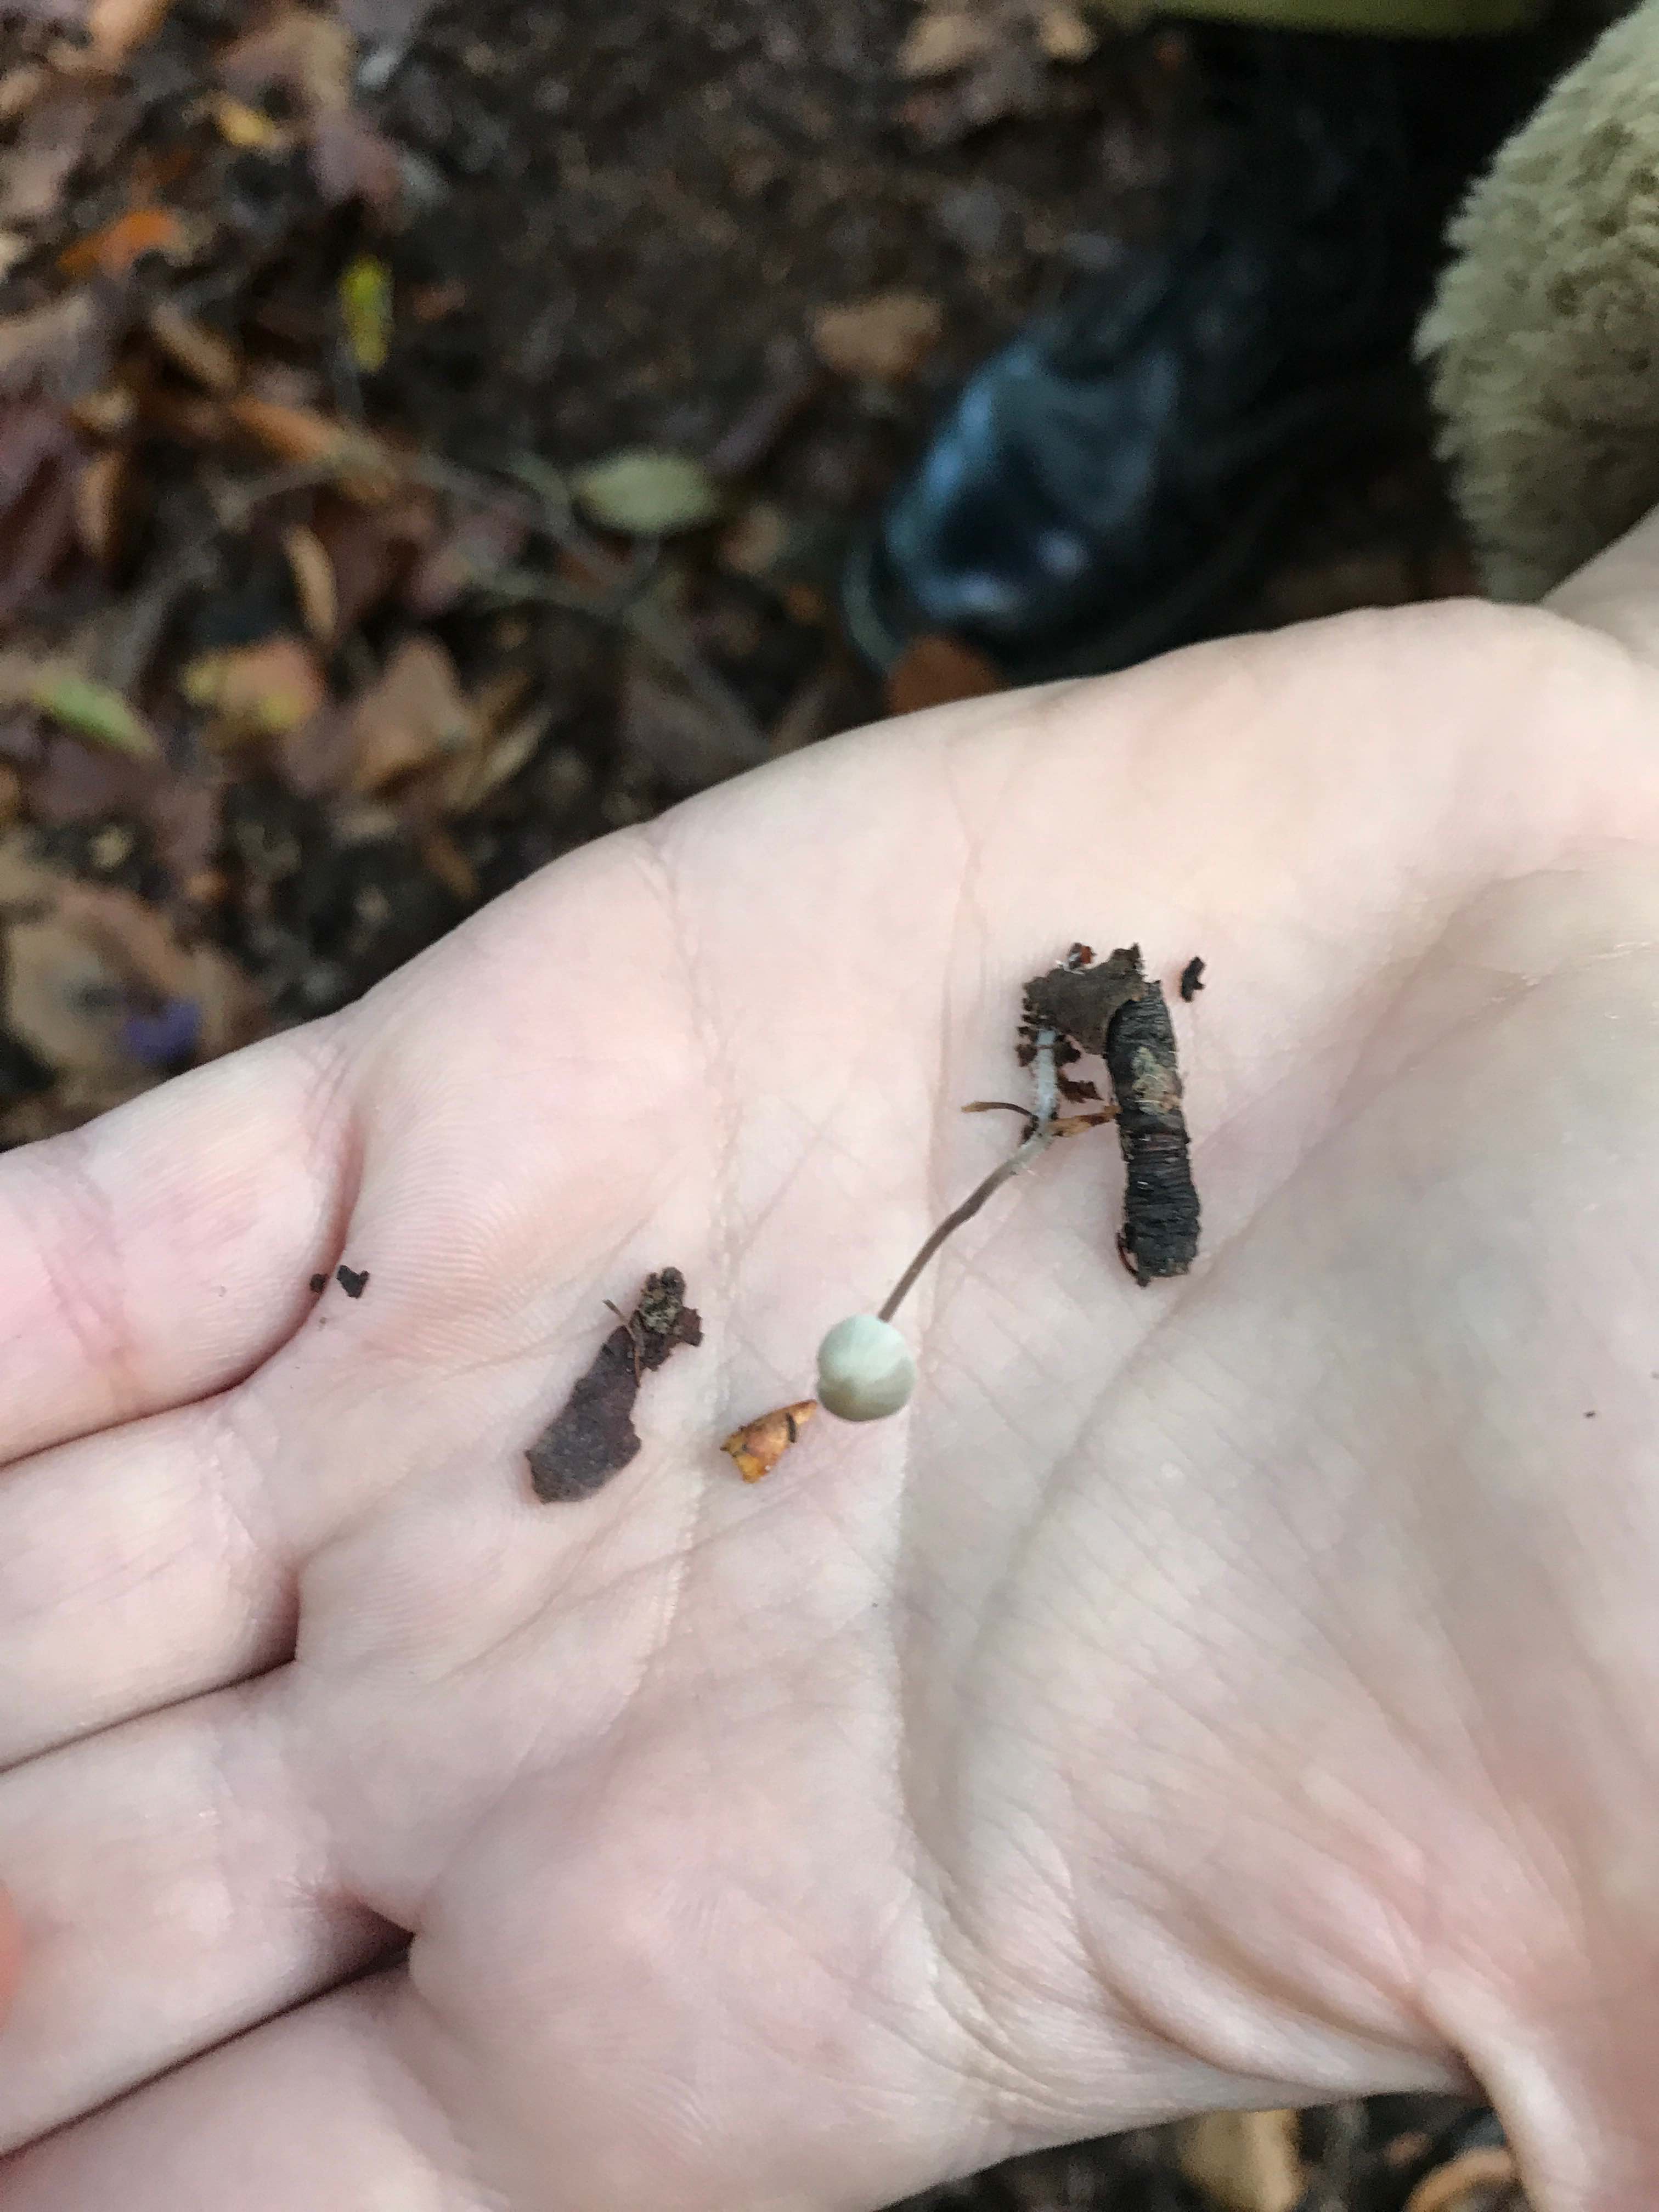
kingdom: Fungi
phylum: Basidiomycota
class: Agaricomycetes
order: Agaricales
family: Mycenaceae
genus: Mycena
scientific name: Mycena
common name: huesvamp
